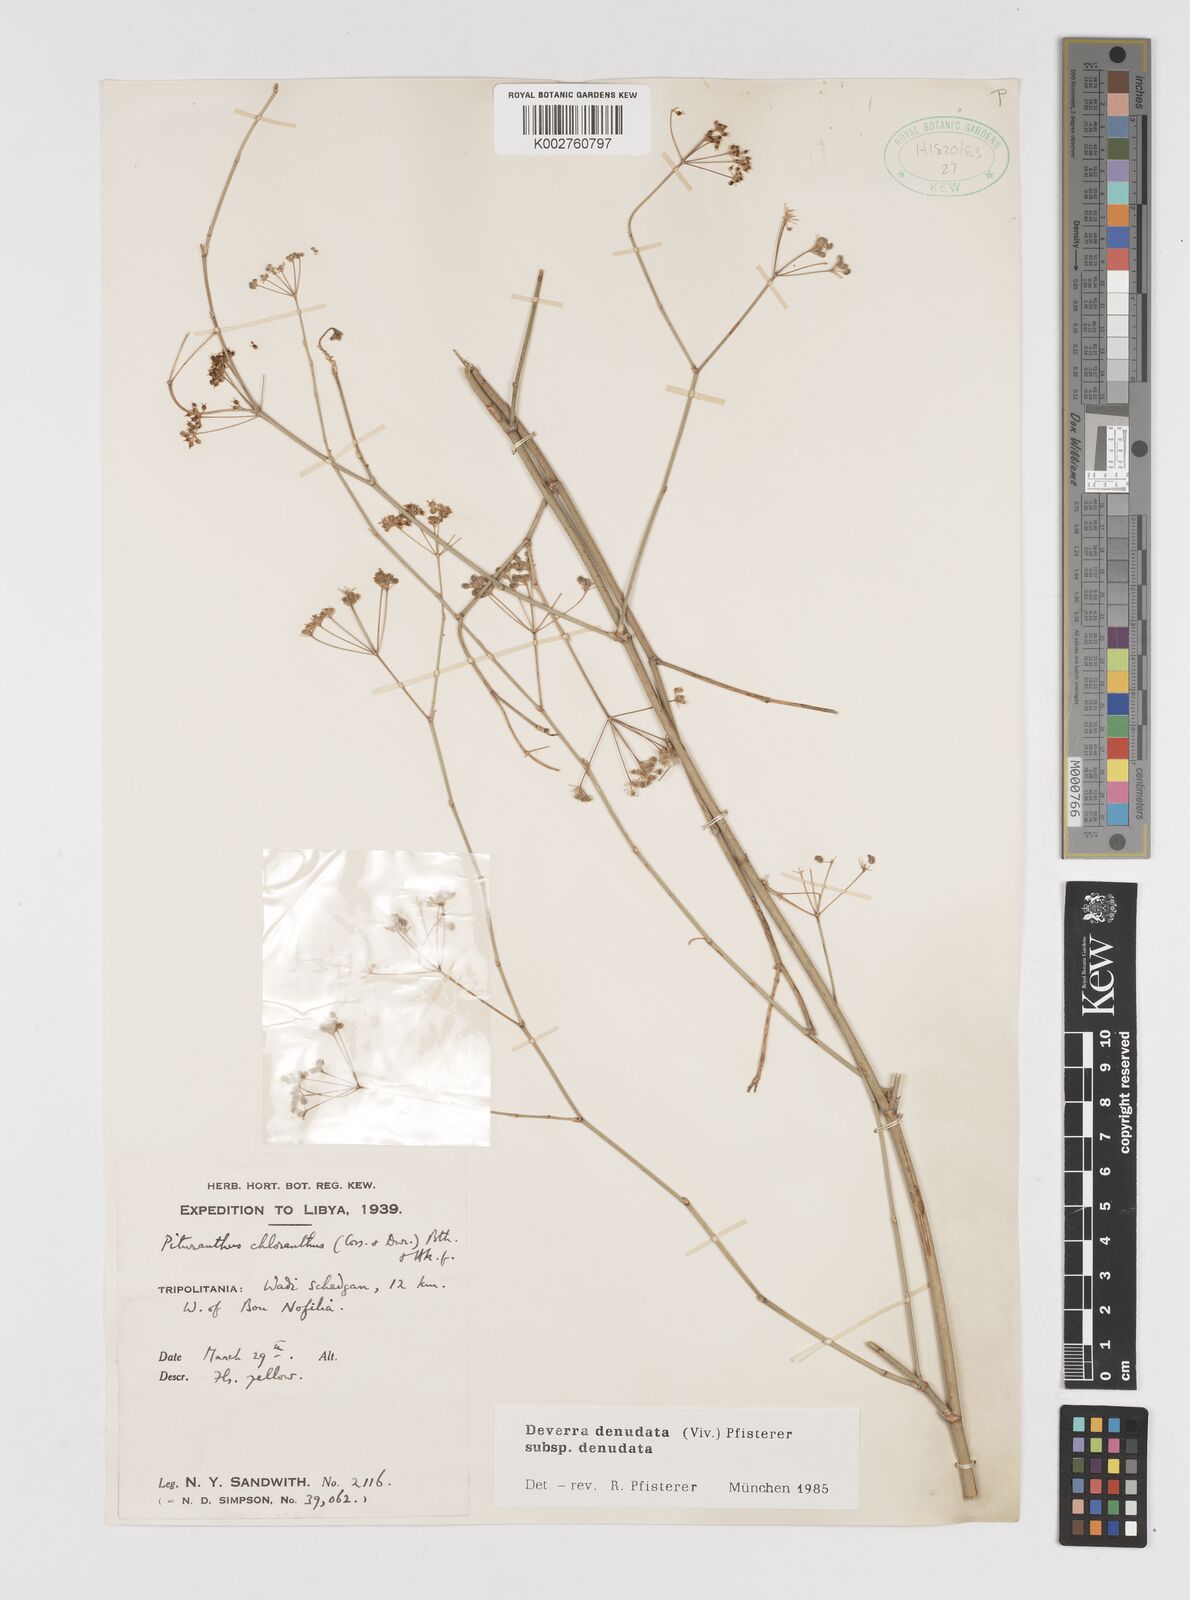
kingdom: Plantae
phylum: Tracheophyta
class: Magnoliopsida
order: Apiales
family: Apiaceae
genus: Deverra
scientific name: Deverra denudata
